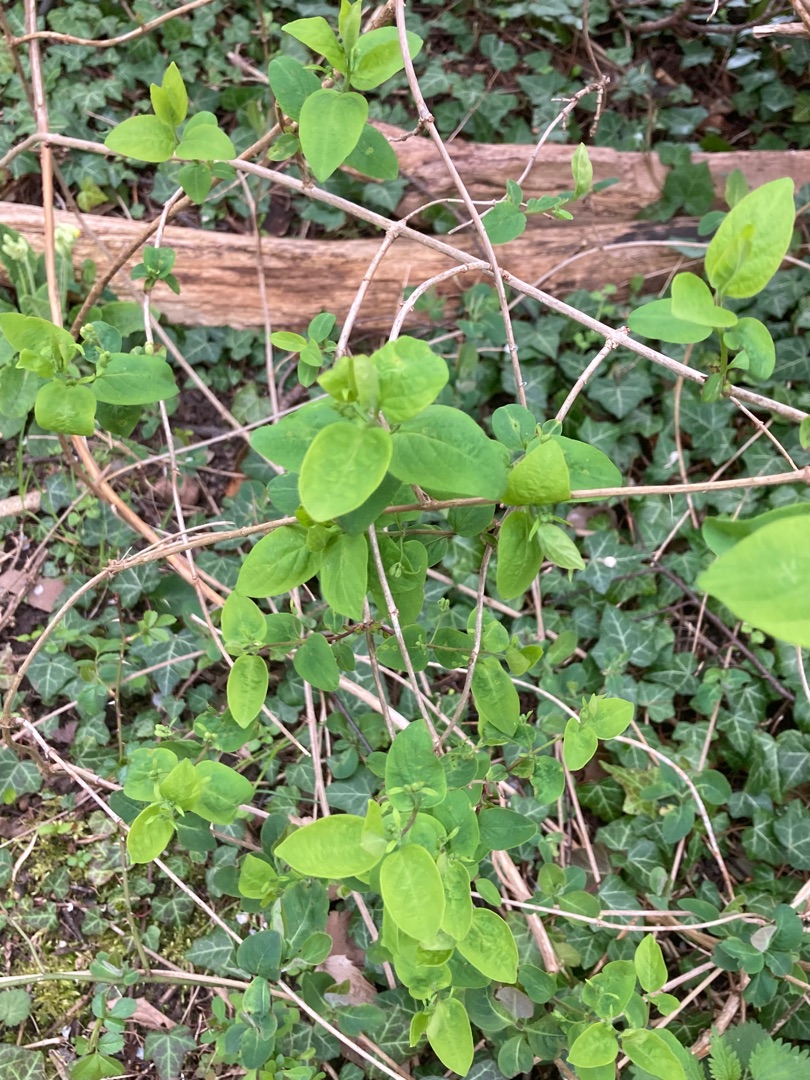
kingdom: Plantae
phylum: Tracheophyta
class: Magnoliopsida
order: Dipsacales
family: Caprifoliaceae
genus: Lonicera
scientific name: Lonicera periclymenum
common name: Almindelig gedeblad
